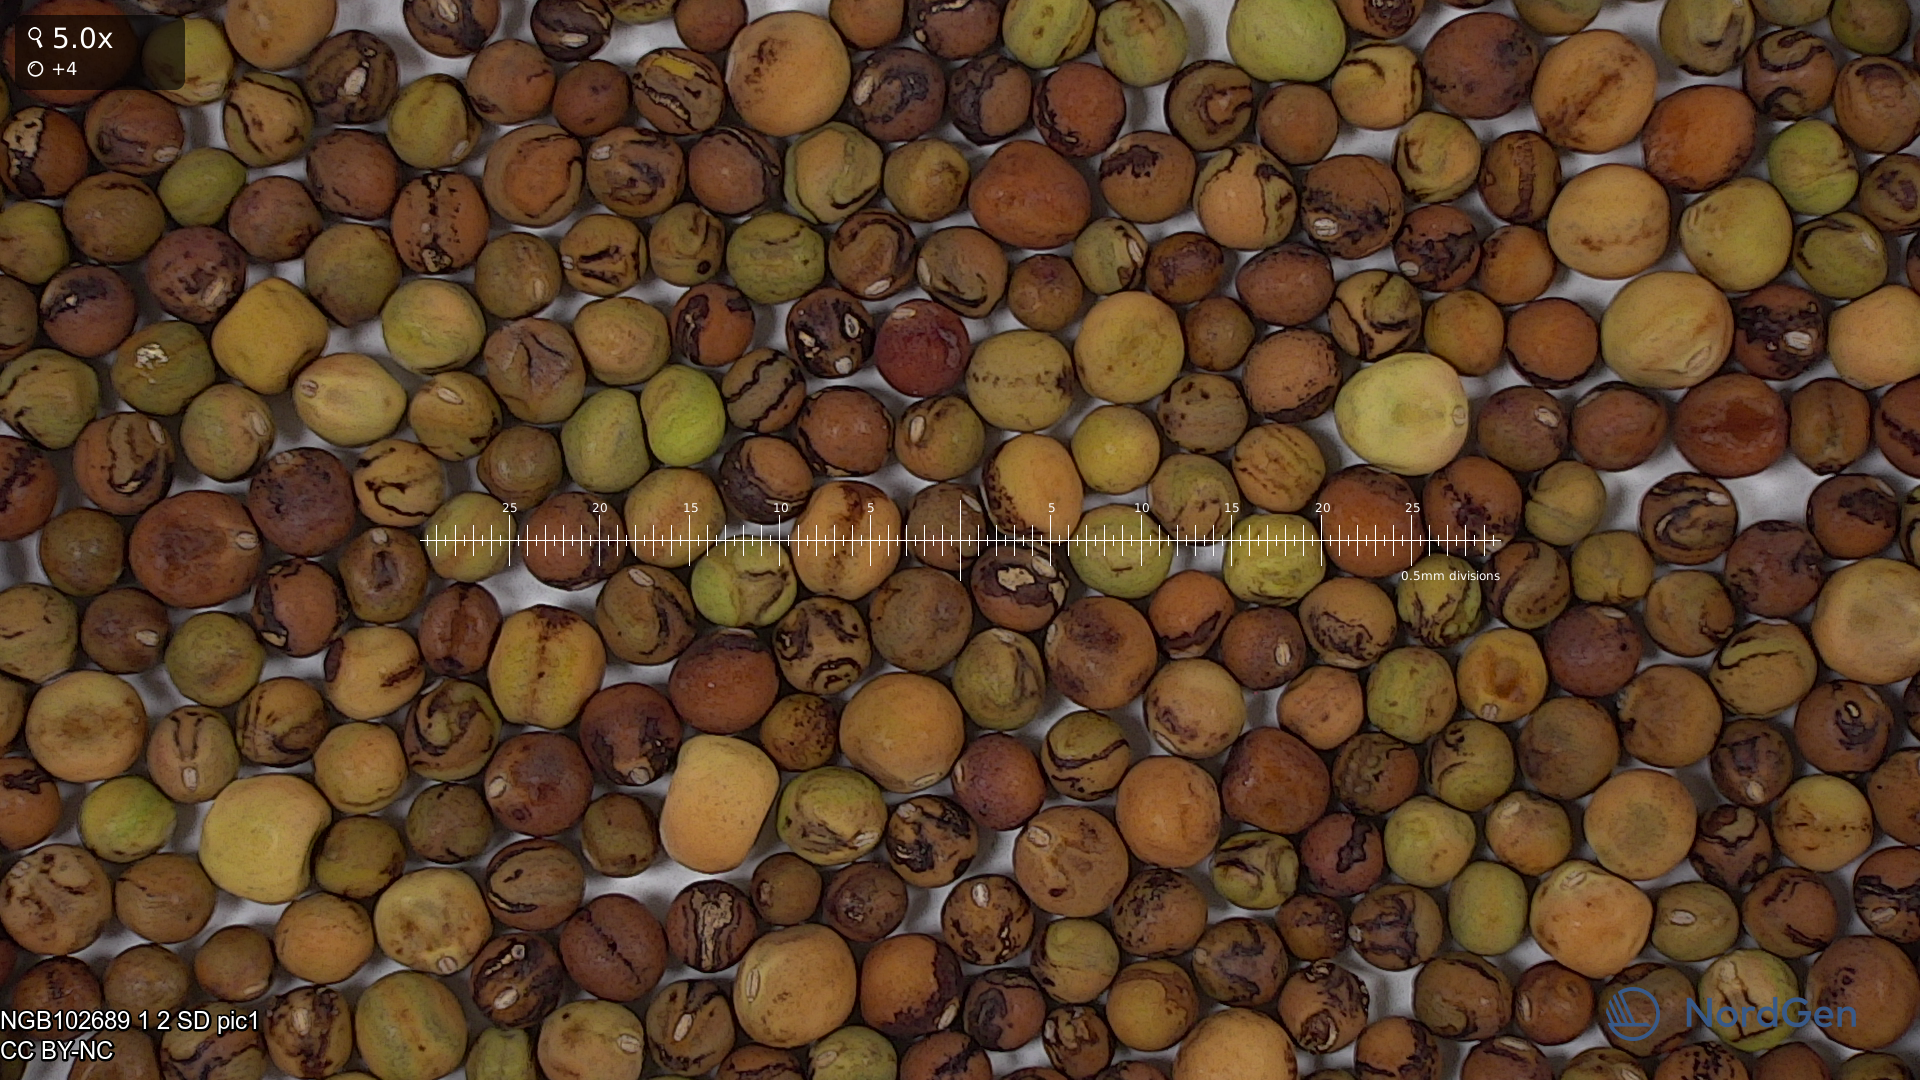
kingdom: Plantae
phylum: Tracheophyta
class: Magnoliopsida
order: Fabales
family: Fabaceae
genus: Lathyrus
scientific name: Lathyrus oleraceus
